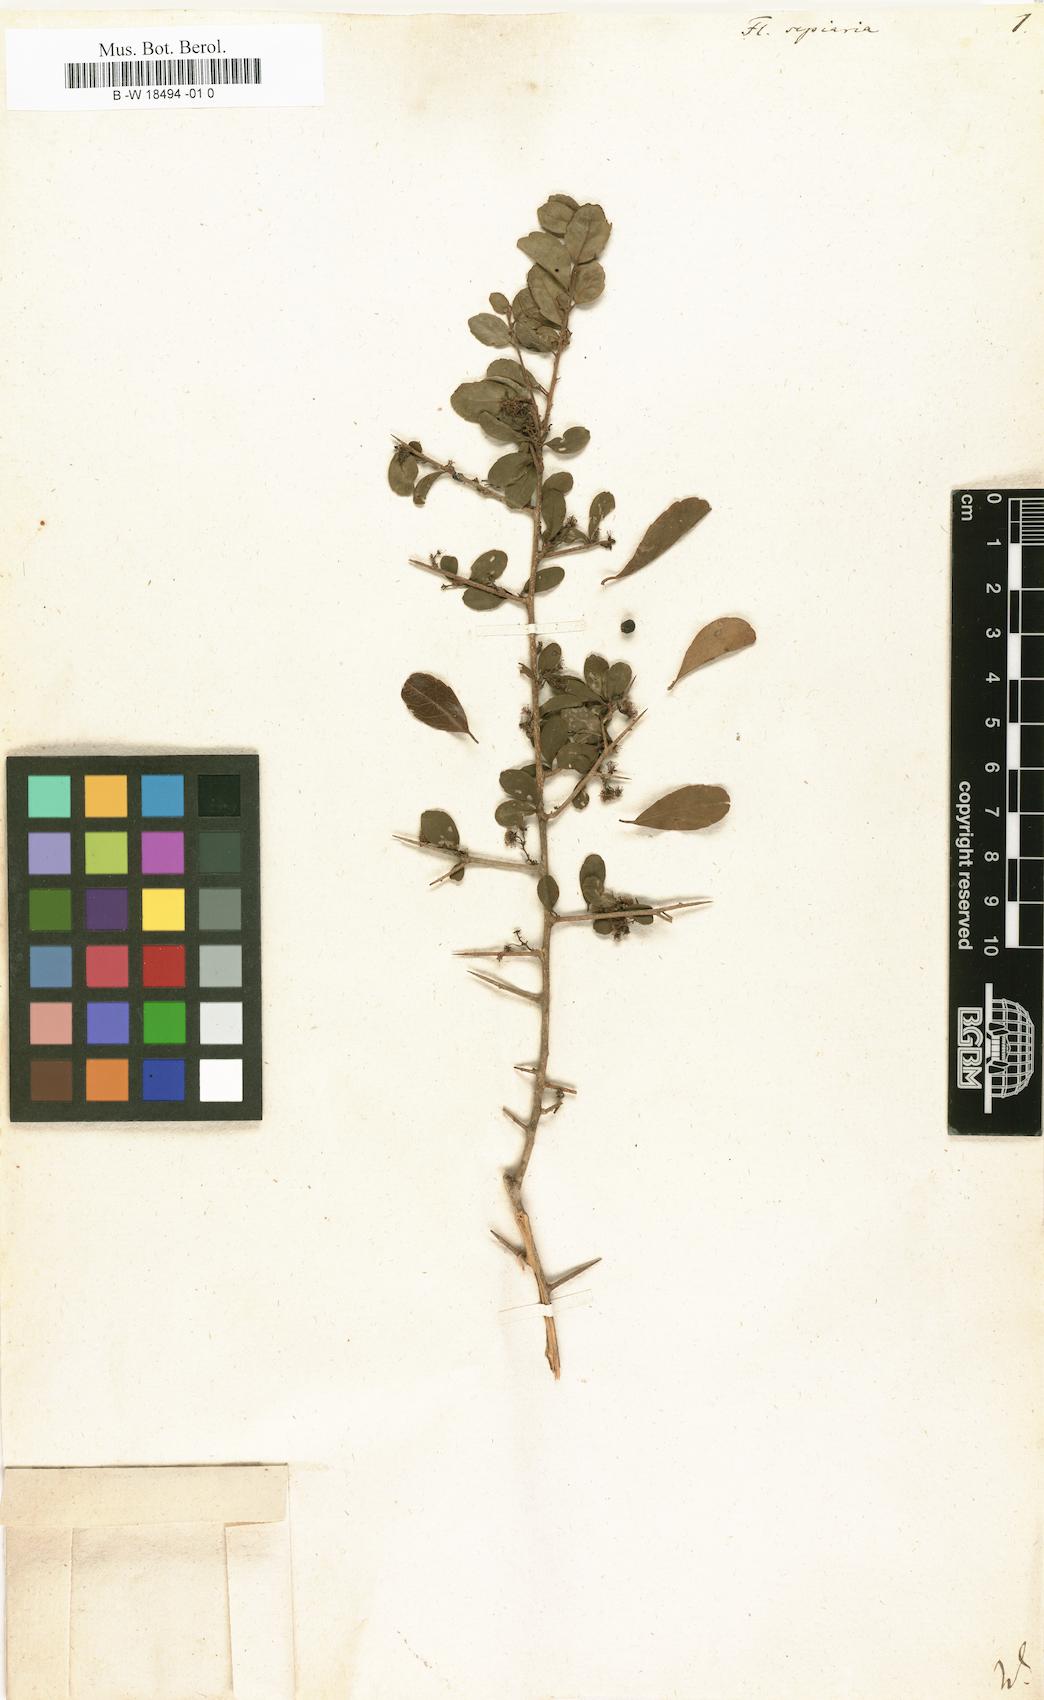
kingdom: Plantae
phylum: Tracheophyta
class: Magnoliopsida
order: Malpighiales
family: Salicaceae
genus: Flacourtia
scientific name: Flacourtia indica
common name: Governor's plum
